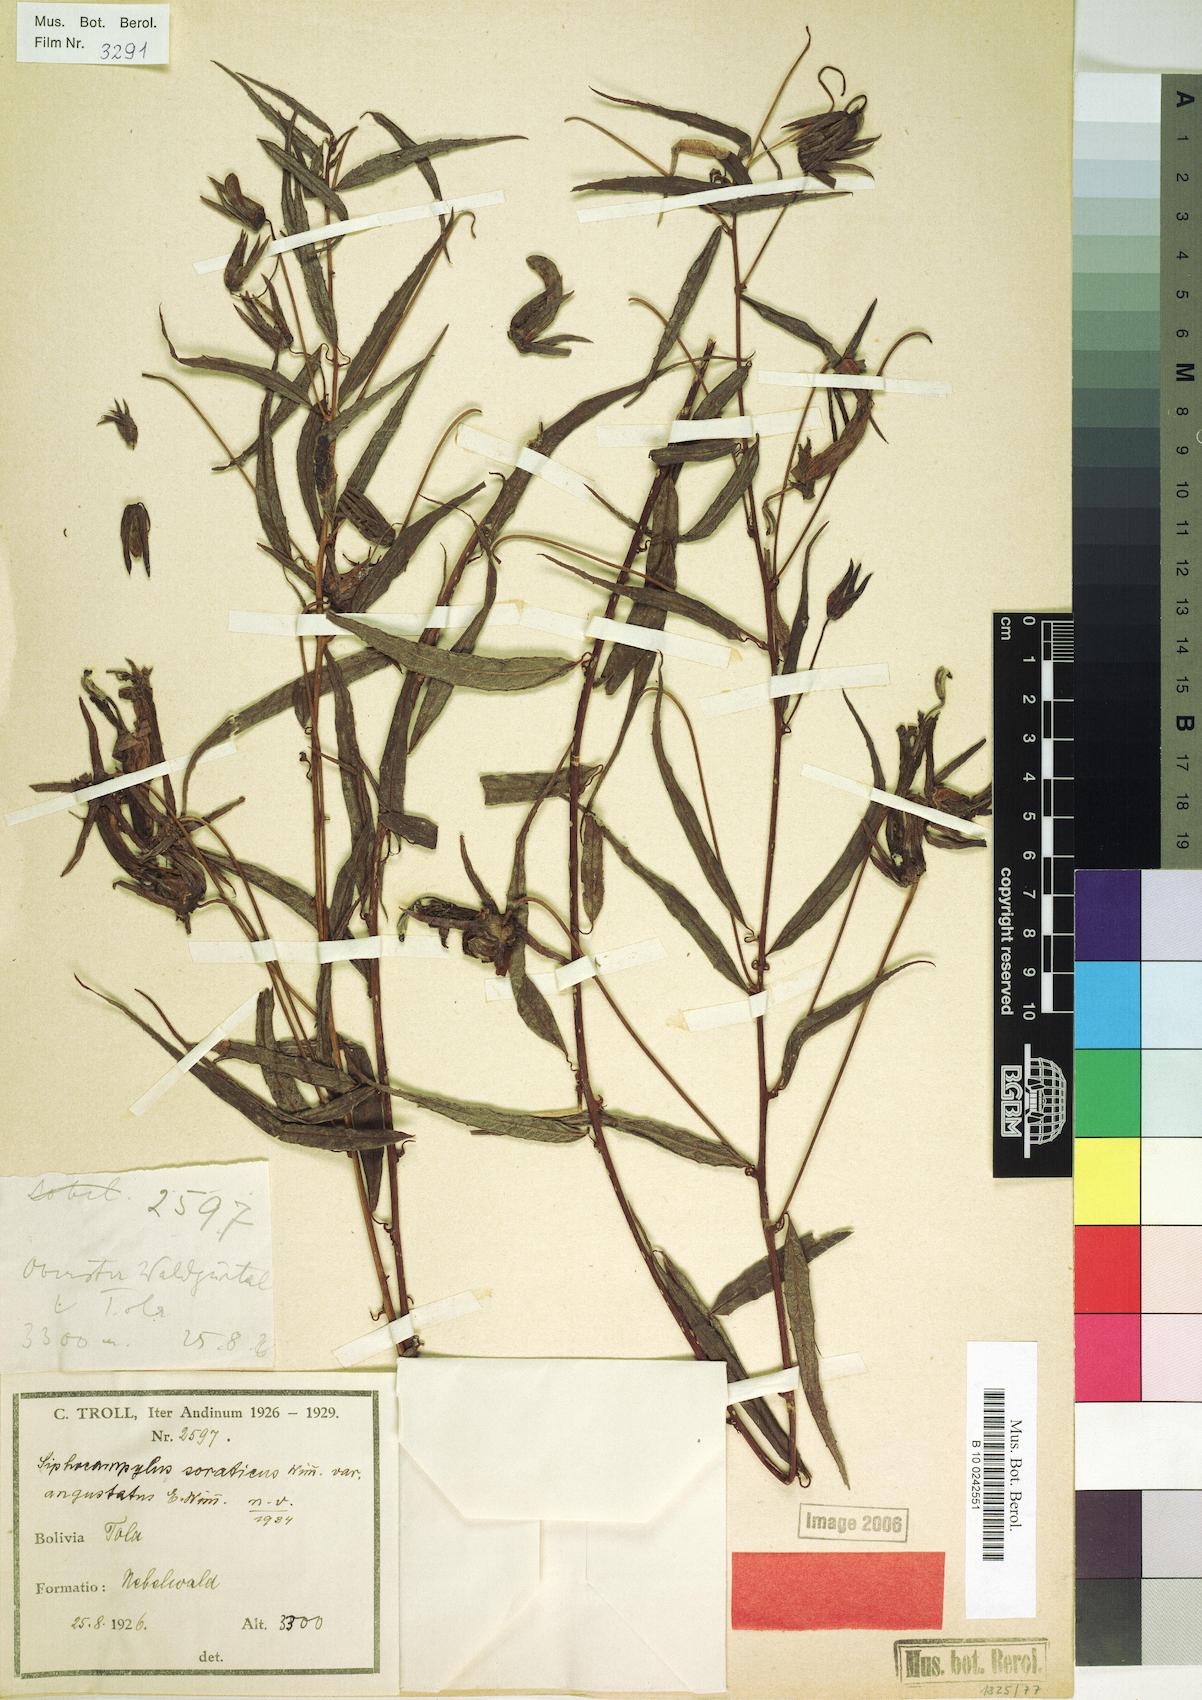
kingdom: Plantae
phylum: Tracheophyta
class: Magnoliopsida
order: Asterales
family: Campanulaceae
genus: Siphocampylus
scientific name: Siphocampylus soraticus
